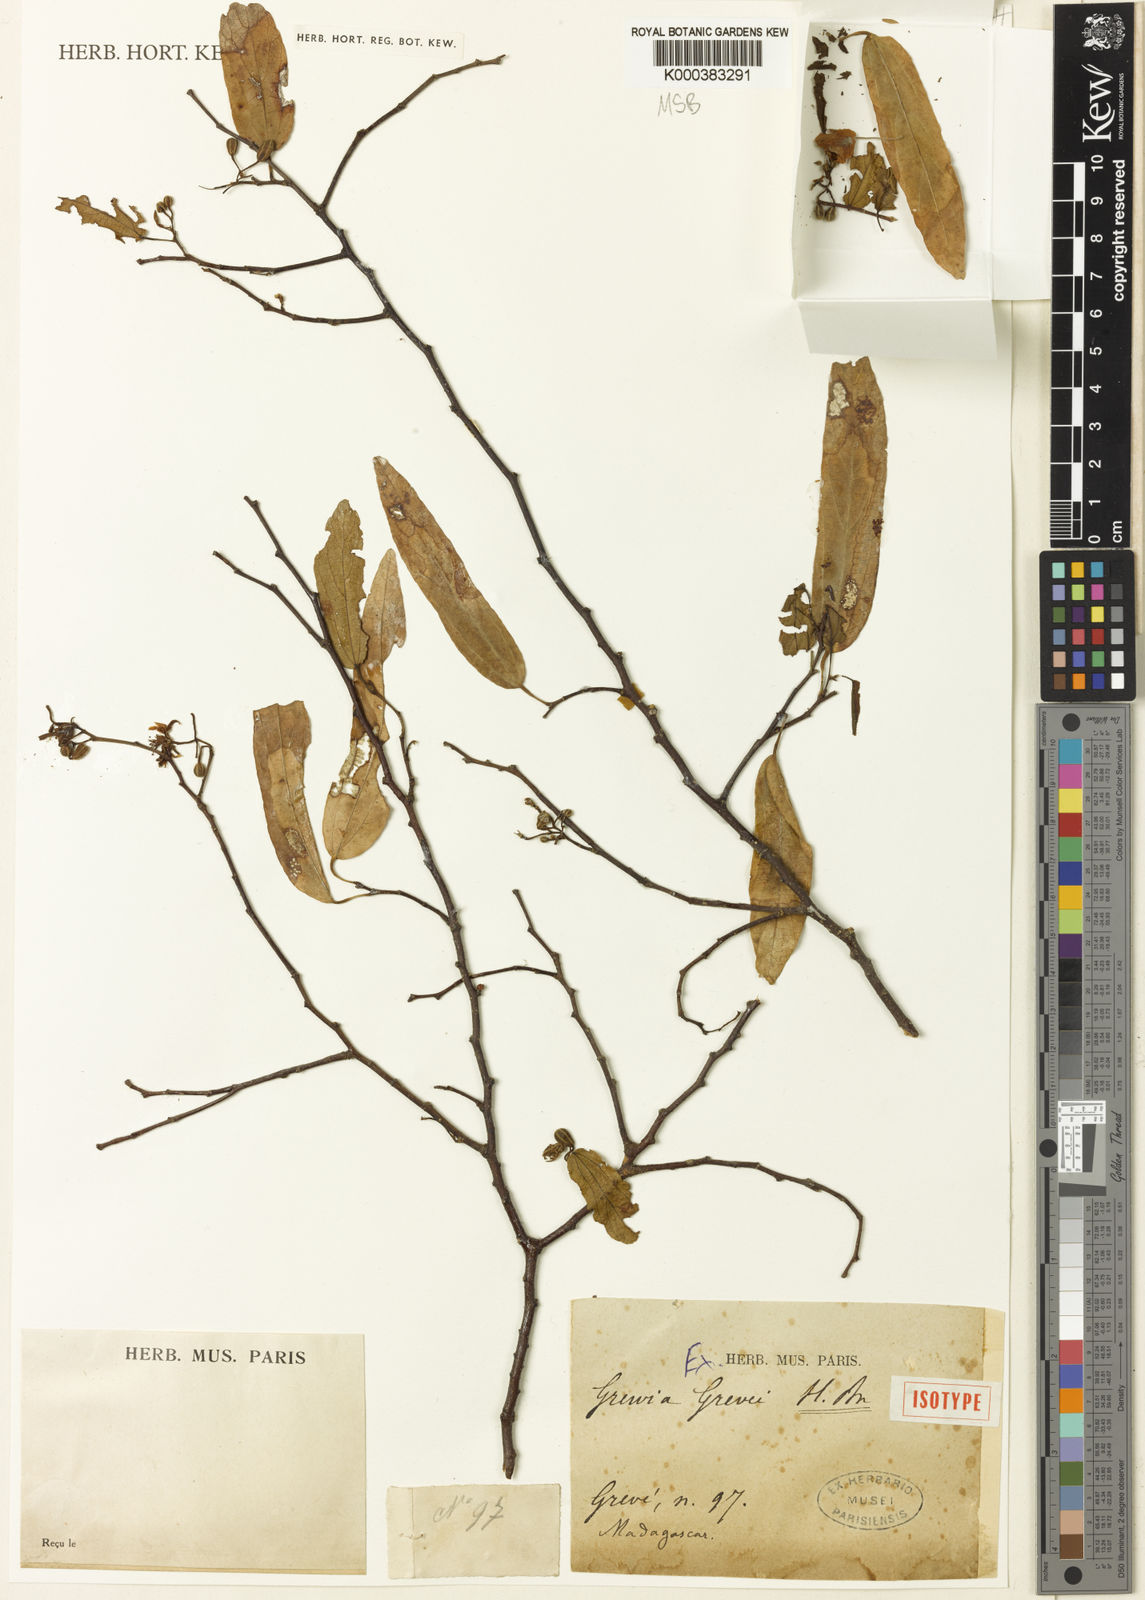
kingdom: Plantae
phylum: Tracheophyta
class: Magnoliopsida
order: Malvales
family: Malvaceae
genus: Grewia
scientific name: Grewia grevei
